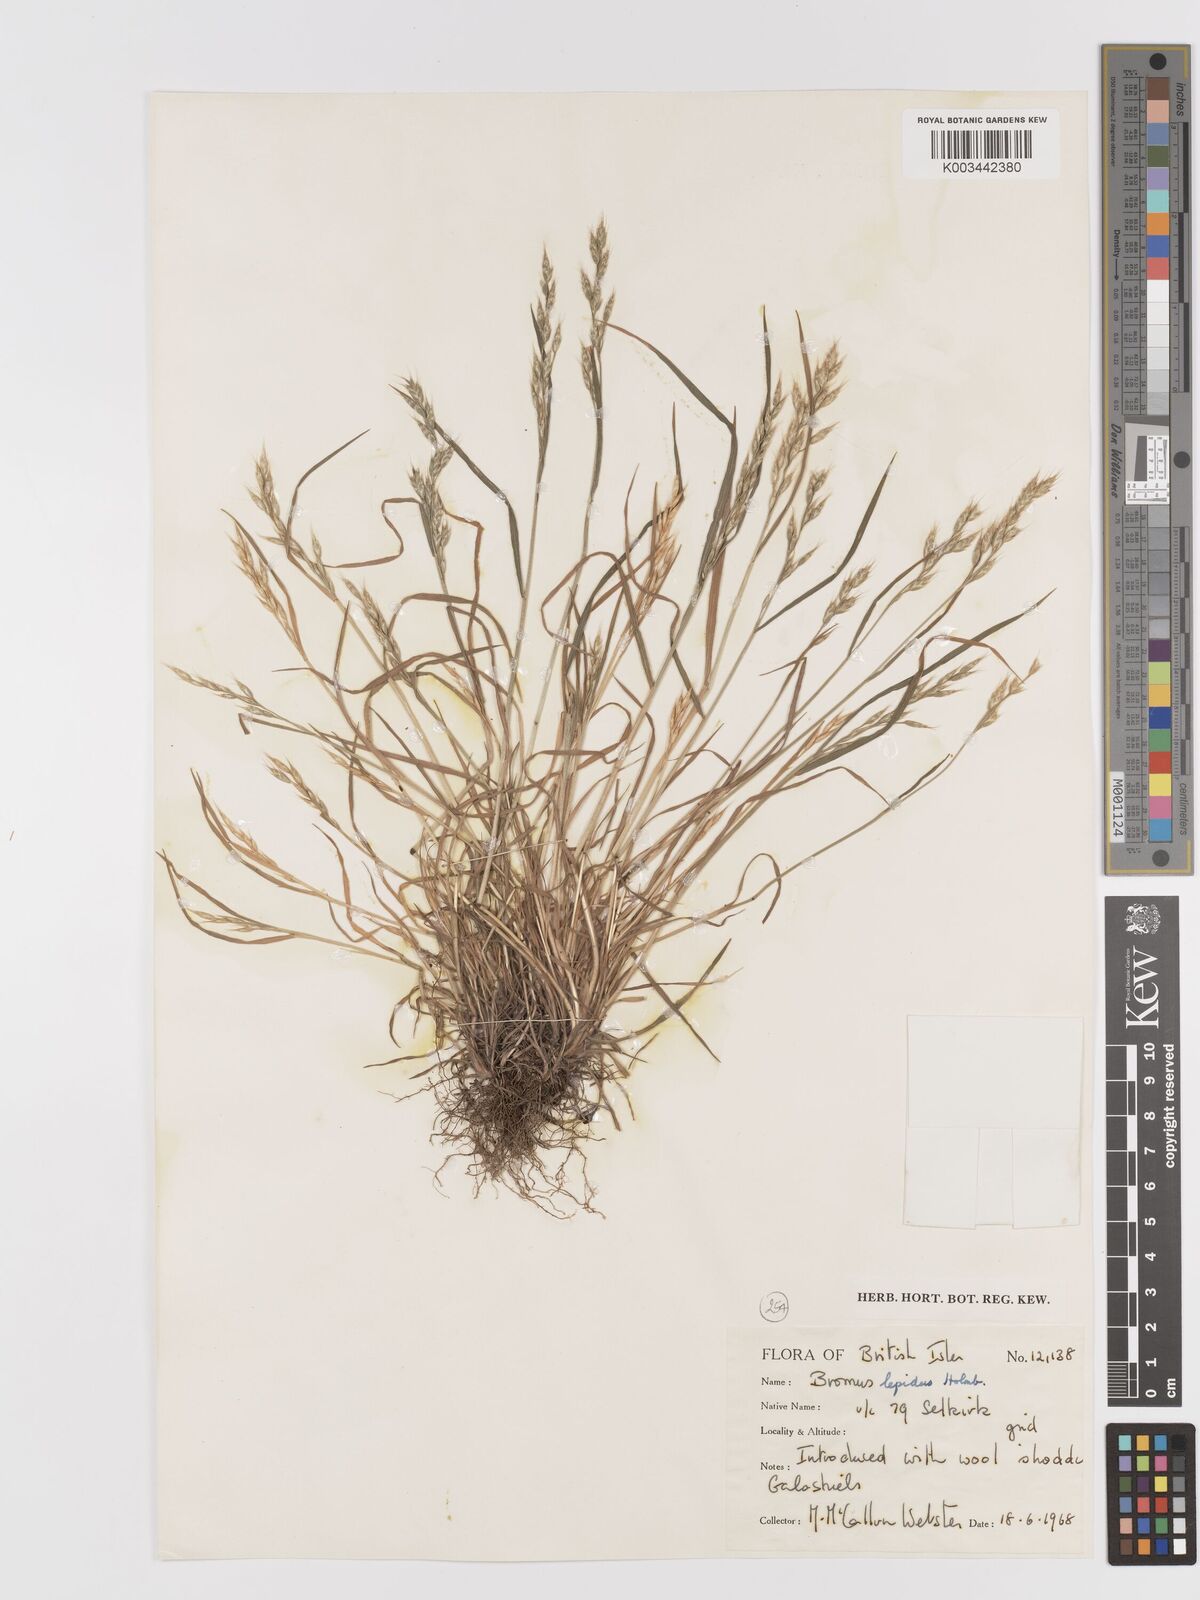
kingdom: Plantae
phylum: Tracheophyta
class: Liliopsida
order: Poales
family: Poaceae
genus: Bromus
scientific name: Bromus lepidus
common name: Slender soft-brome
